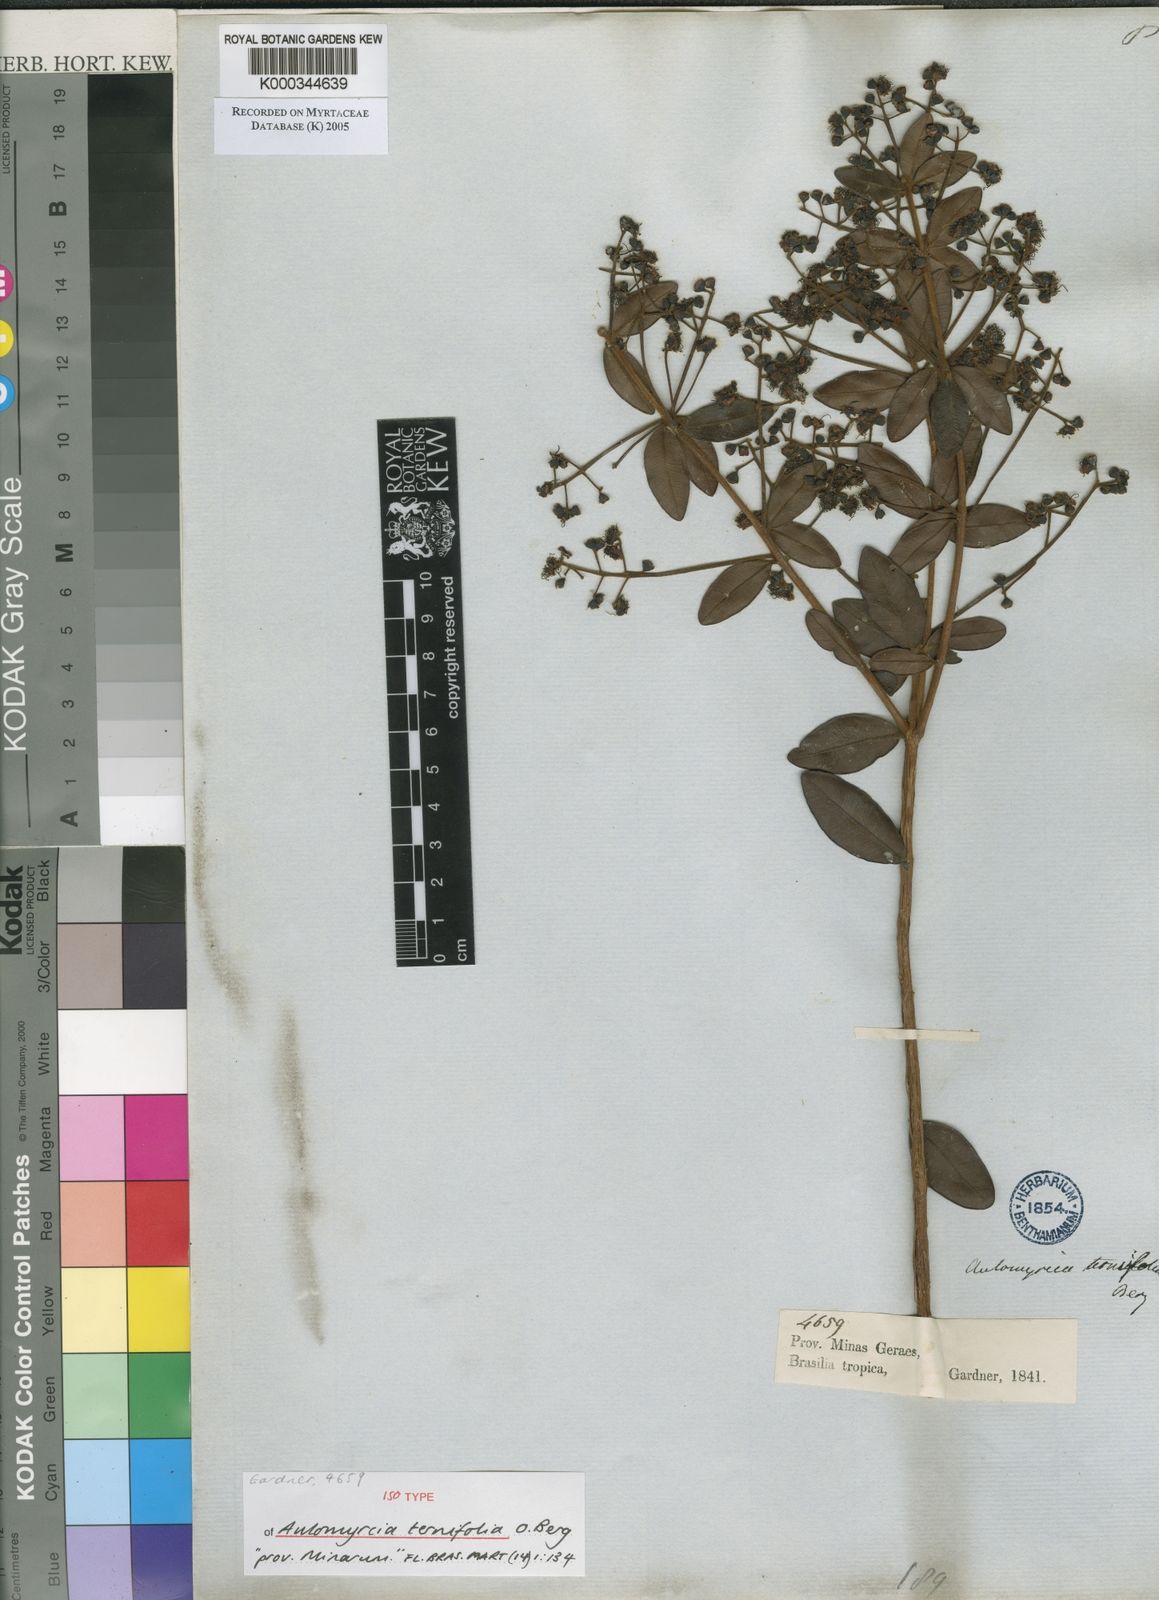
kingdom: Plantae
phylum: Tracheophyta
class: Magnoliopsida
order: Myrtales
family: Myrtaceae
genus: Myrcia
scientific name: Myrcia rufipes
